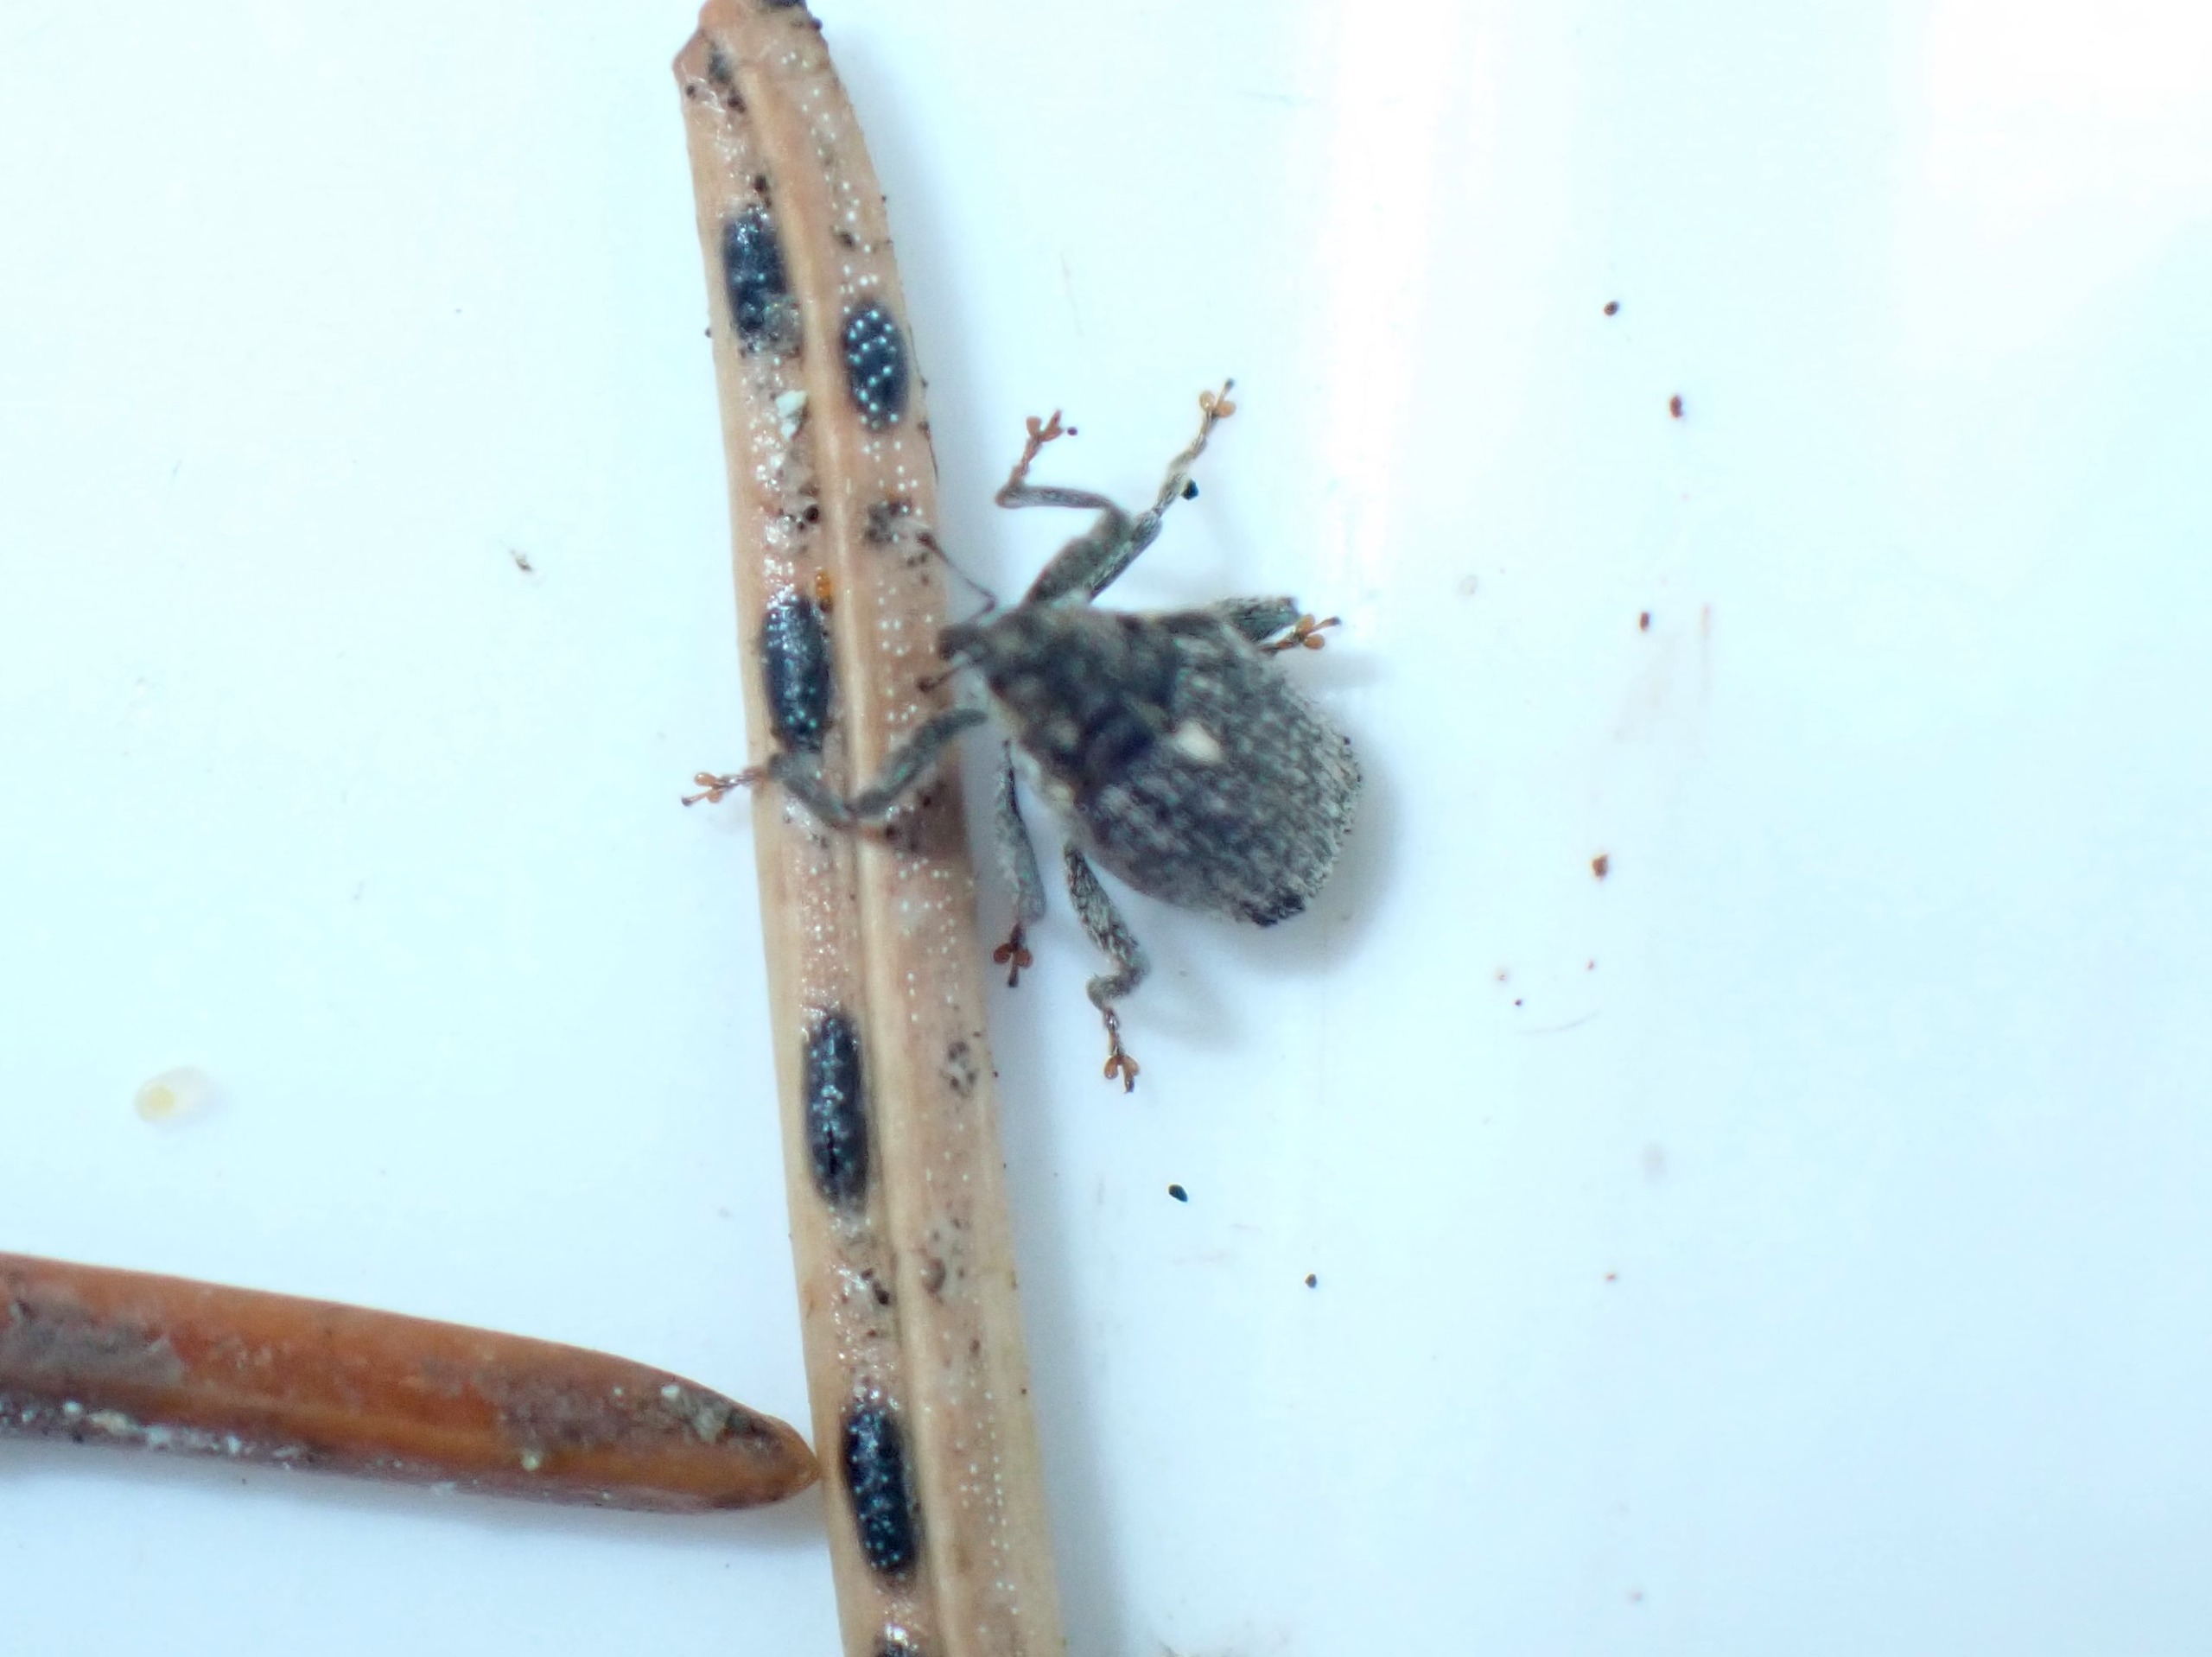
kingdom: Animalia
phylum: Arthropoda
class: Insecta
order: Coleoptera
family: Curculionidae
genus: Ceutorhynchus
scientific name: Ceutorhynchus pallidactylus
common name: Bladribbesnudebille
